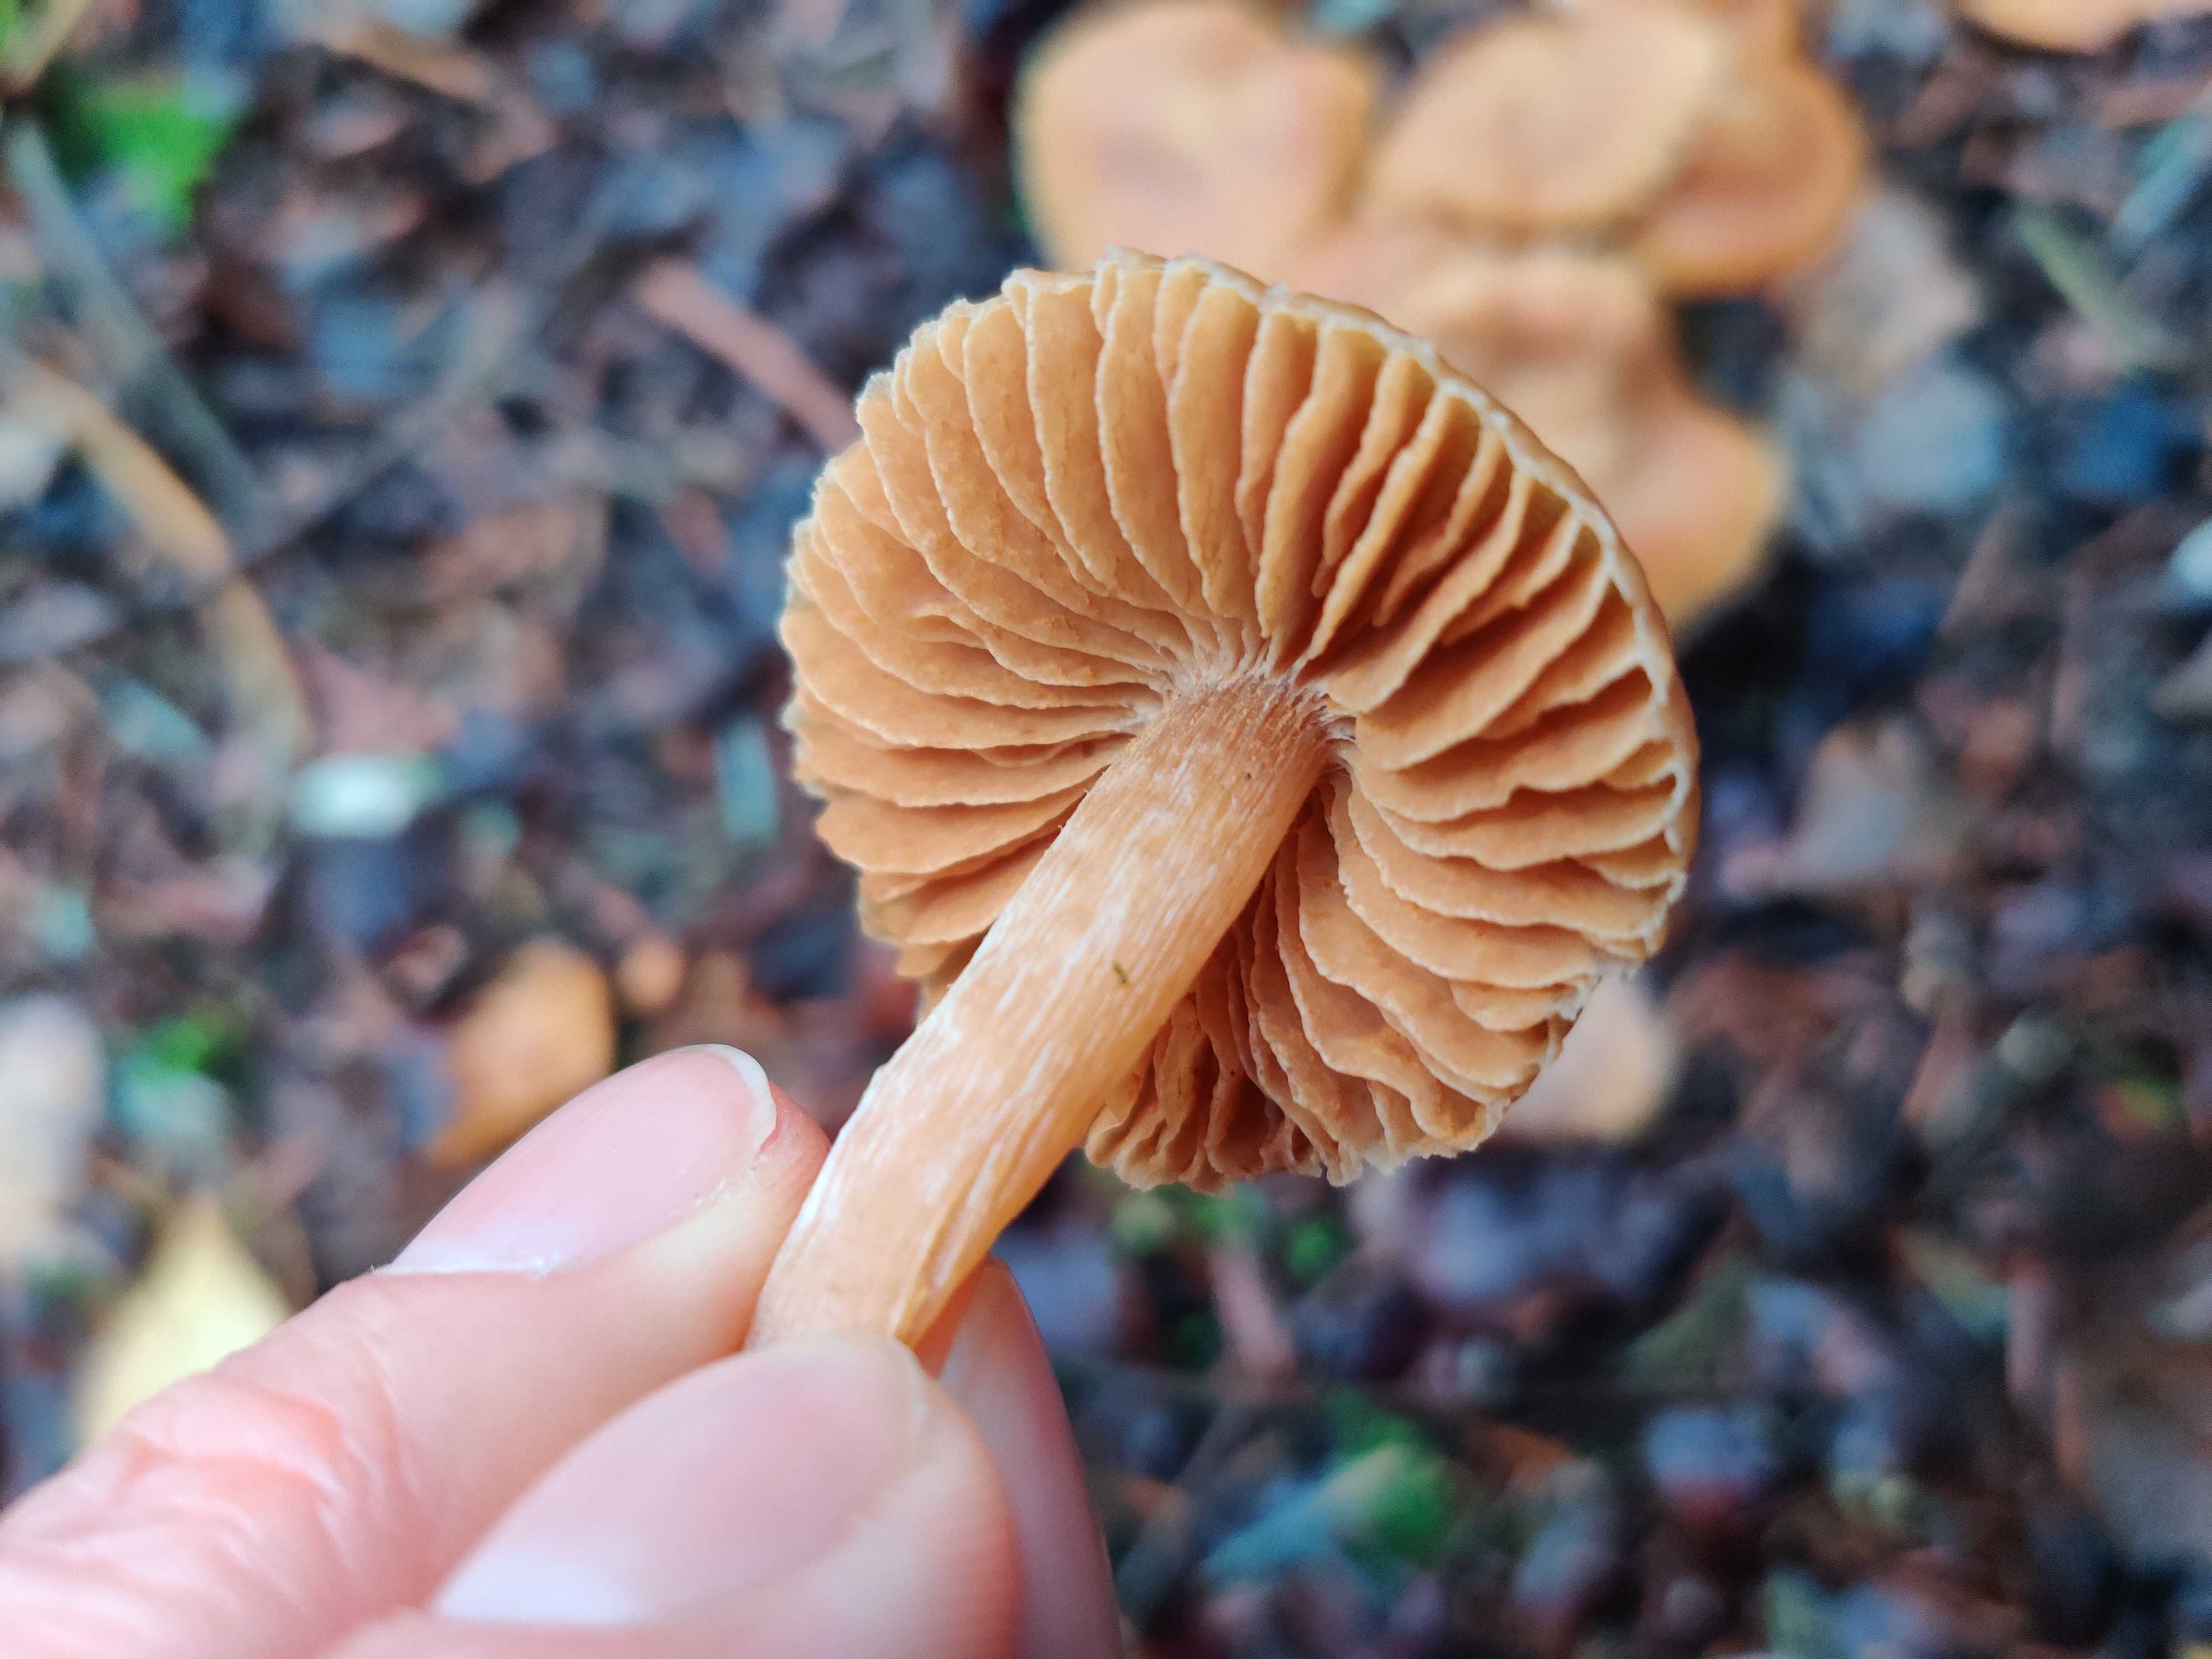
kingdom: Fungi
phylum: Basidiomycota
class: Agaricomycetes
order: Agaricales
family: Cortinariaceae
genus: Cortinarius
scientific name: Cortinarius
